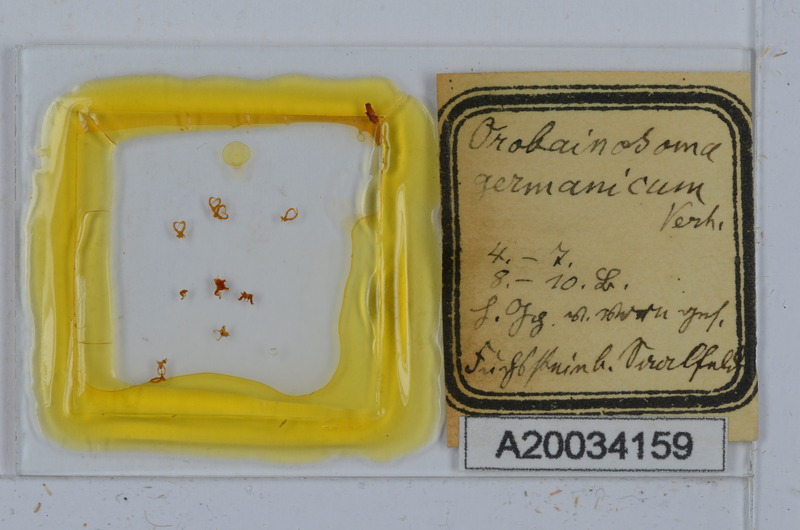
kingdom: Animalia
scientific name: Animalia
